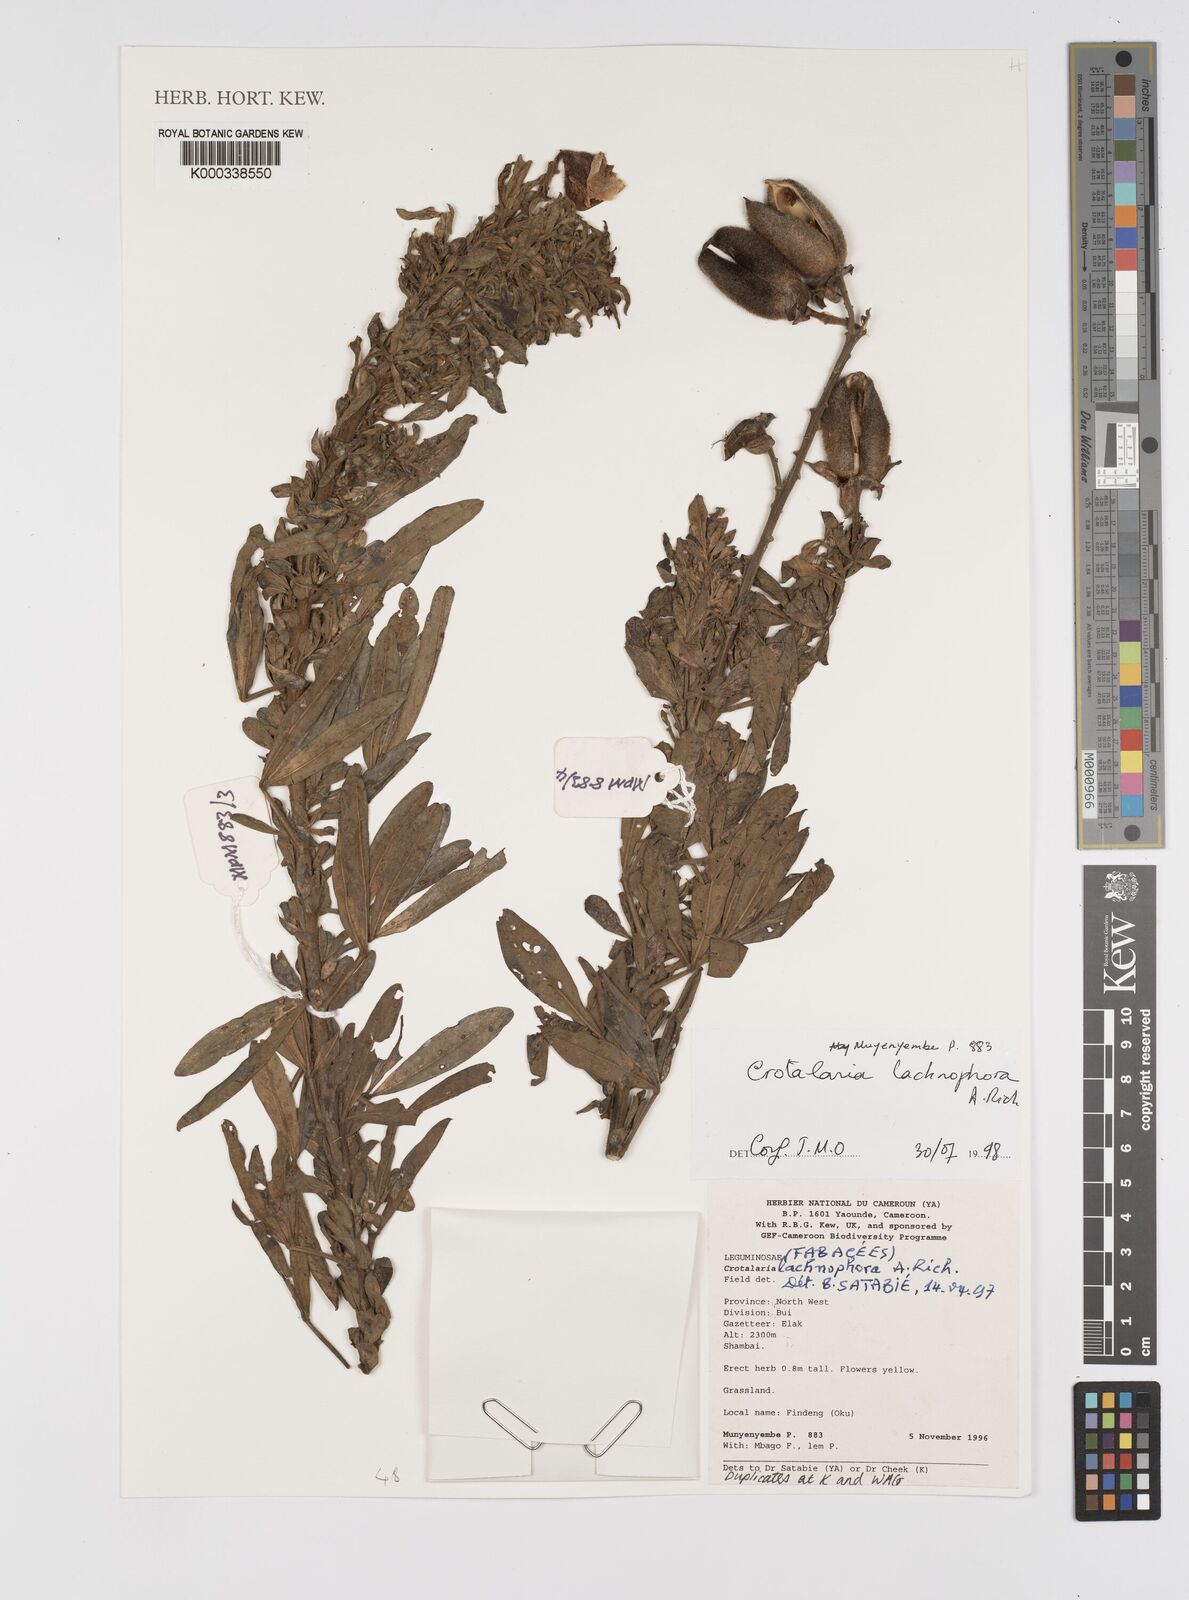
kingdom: Plantae
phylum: Tracheophyta
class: Magnoliopsida
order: Fabales
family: Fabaceae
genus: Crotalaria
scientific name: Crotalaria lachnophora
